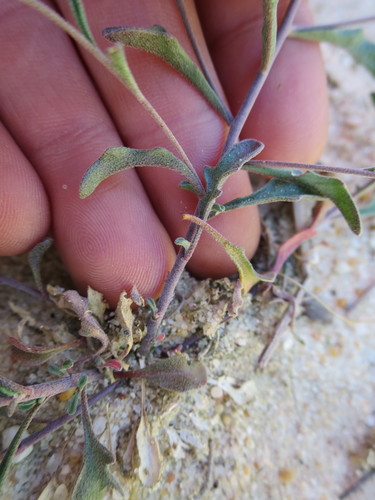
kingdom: Plantae
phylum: Tracheophyta
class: Magnoliopsida
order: Brassicales
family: Brassicaceae
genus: Marcuskochia
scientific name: Marcuskochia triloba
